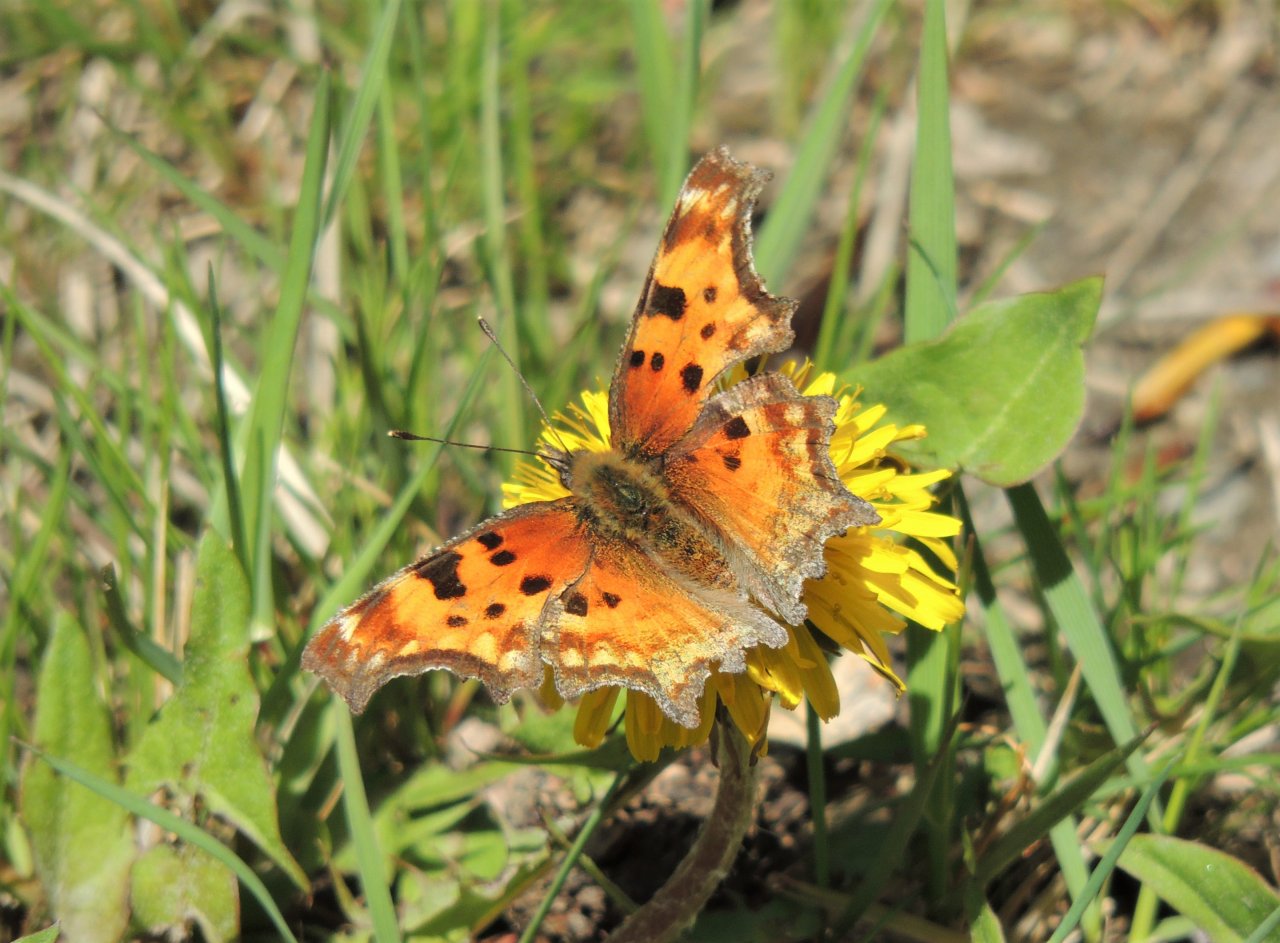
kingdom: Animalia
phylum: Arthropoda
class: Insecta
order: Lepidoptera
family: Nymphalidae
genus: Polygonia
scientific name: Polygonia gracilis
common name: Hoary Comma
